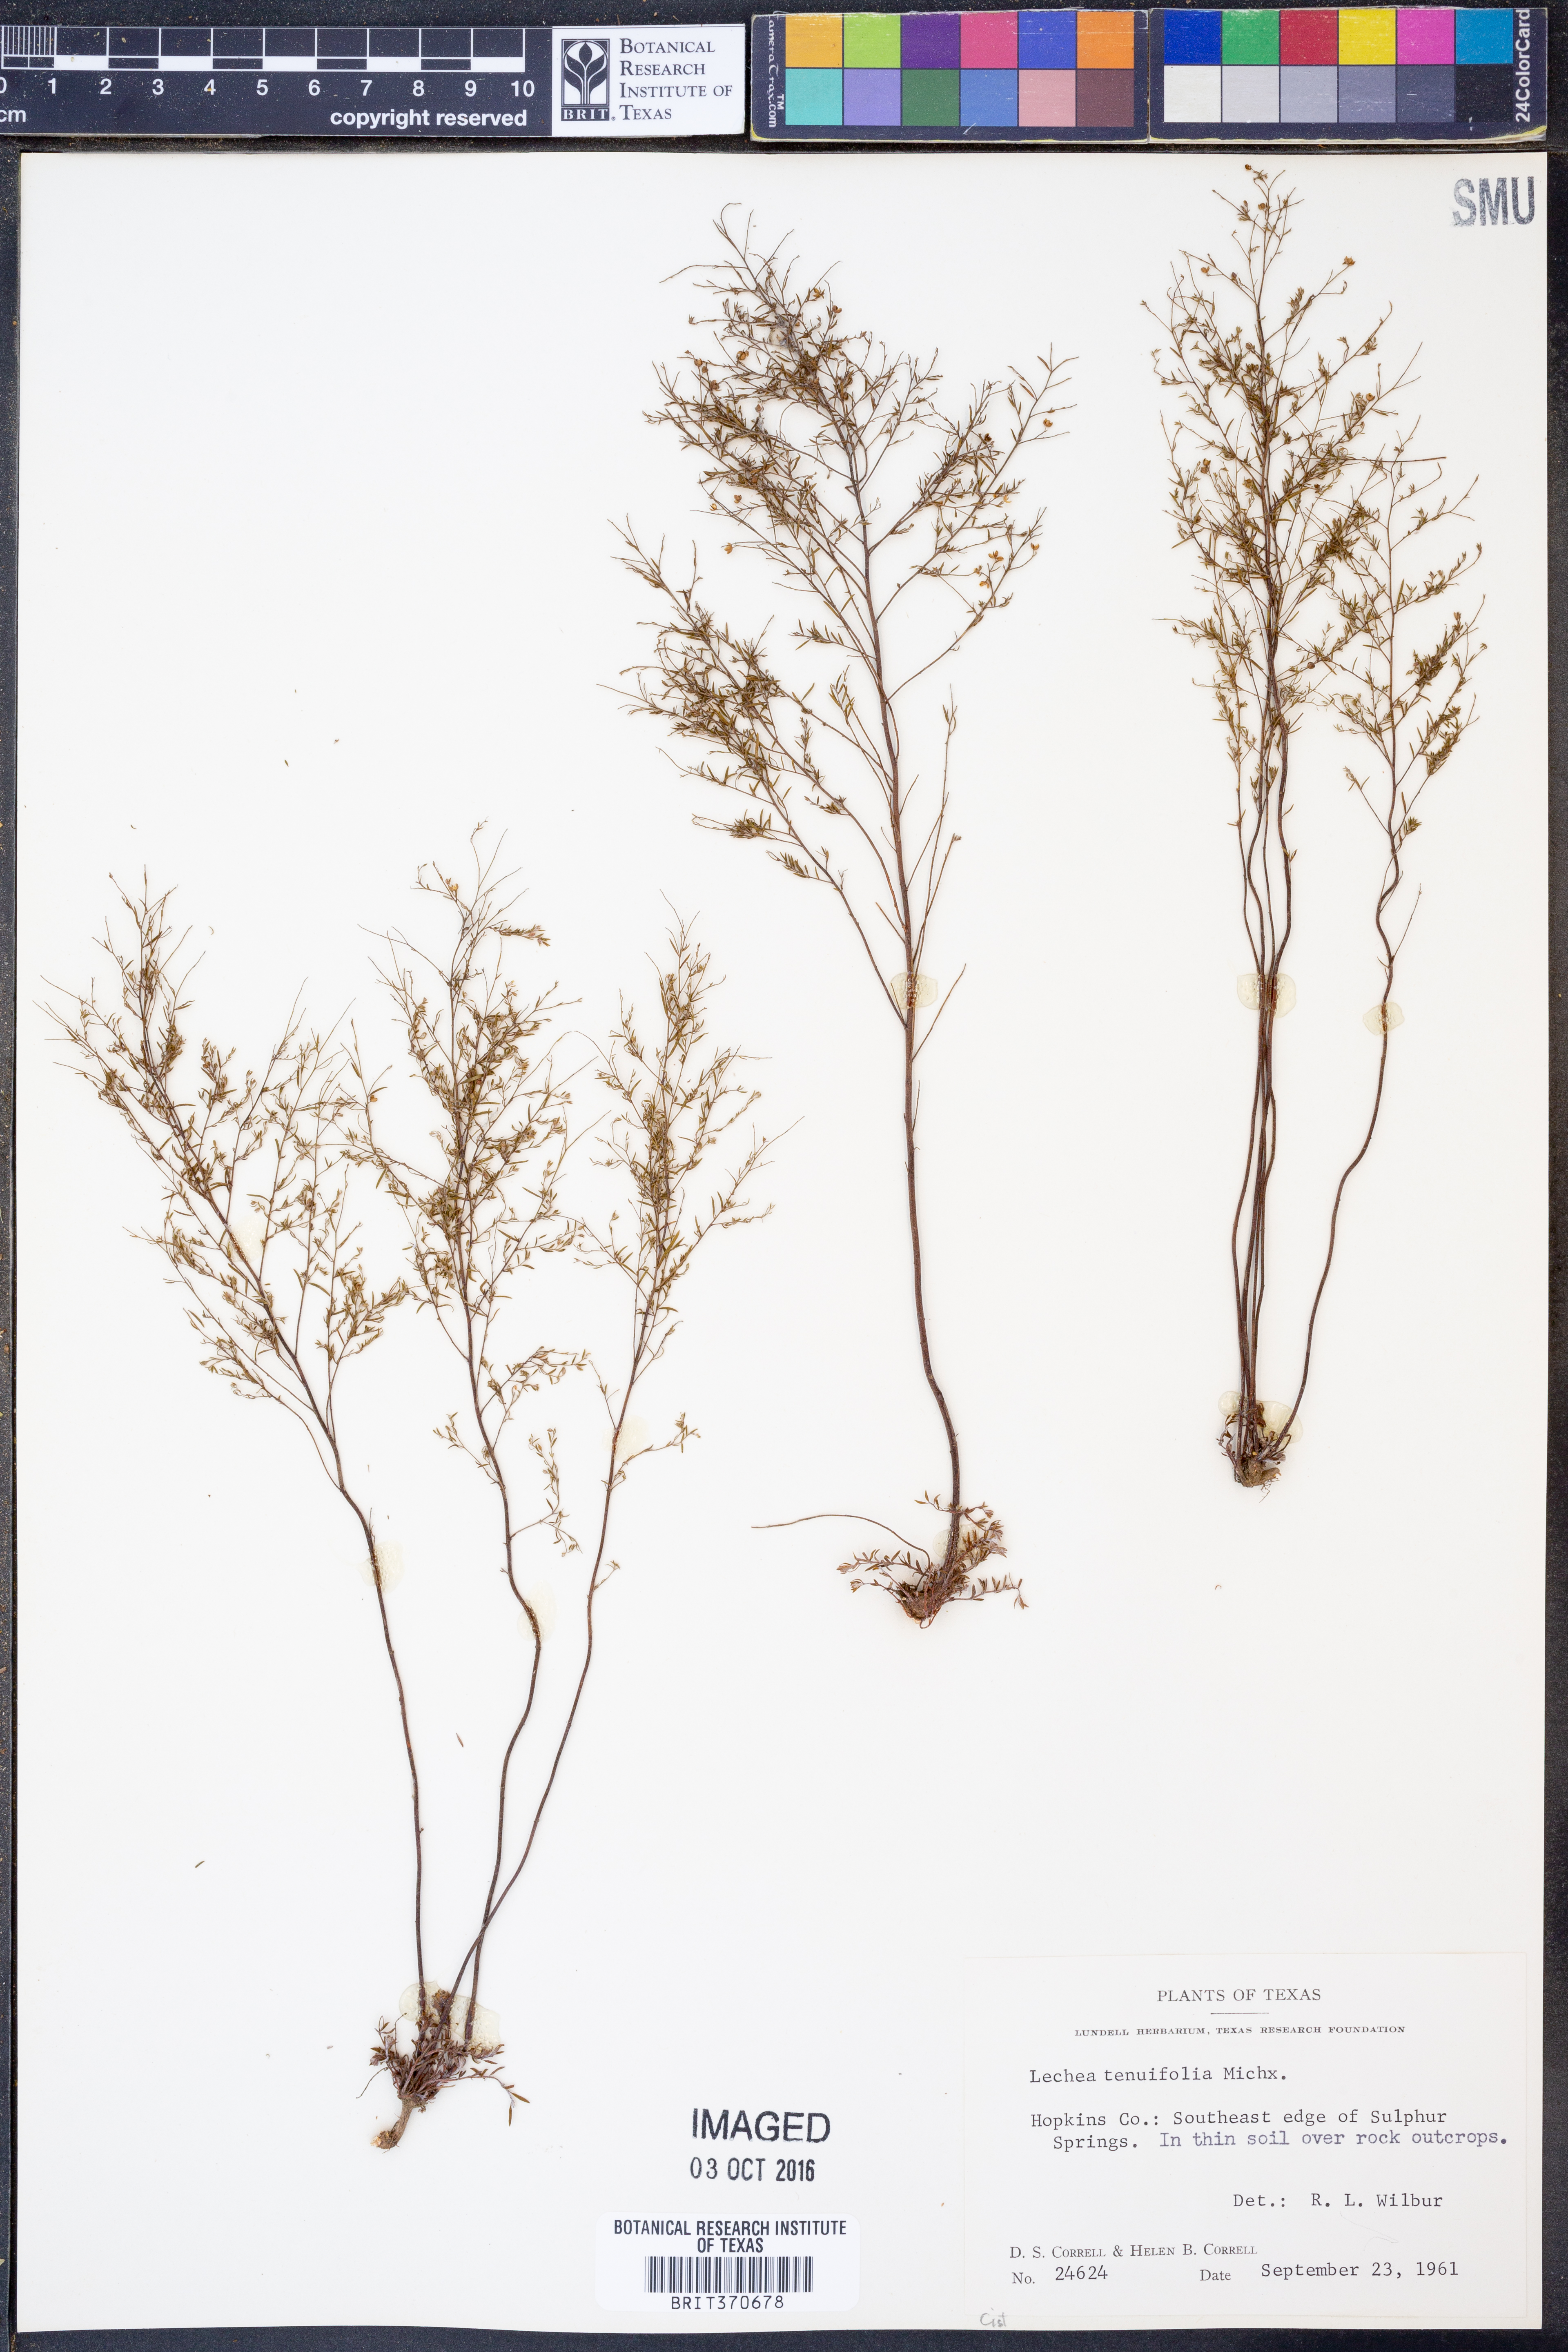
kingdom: Plantae
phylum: Tracheophyta
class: Magnoliopsida
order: Malvales
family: Cistaceae
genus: Lechea
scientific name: Lechea tenuifolia
